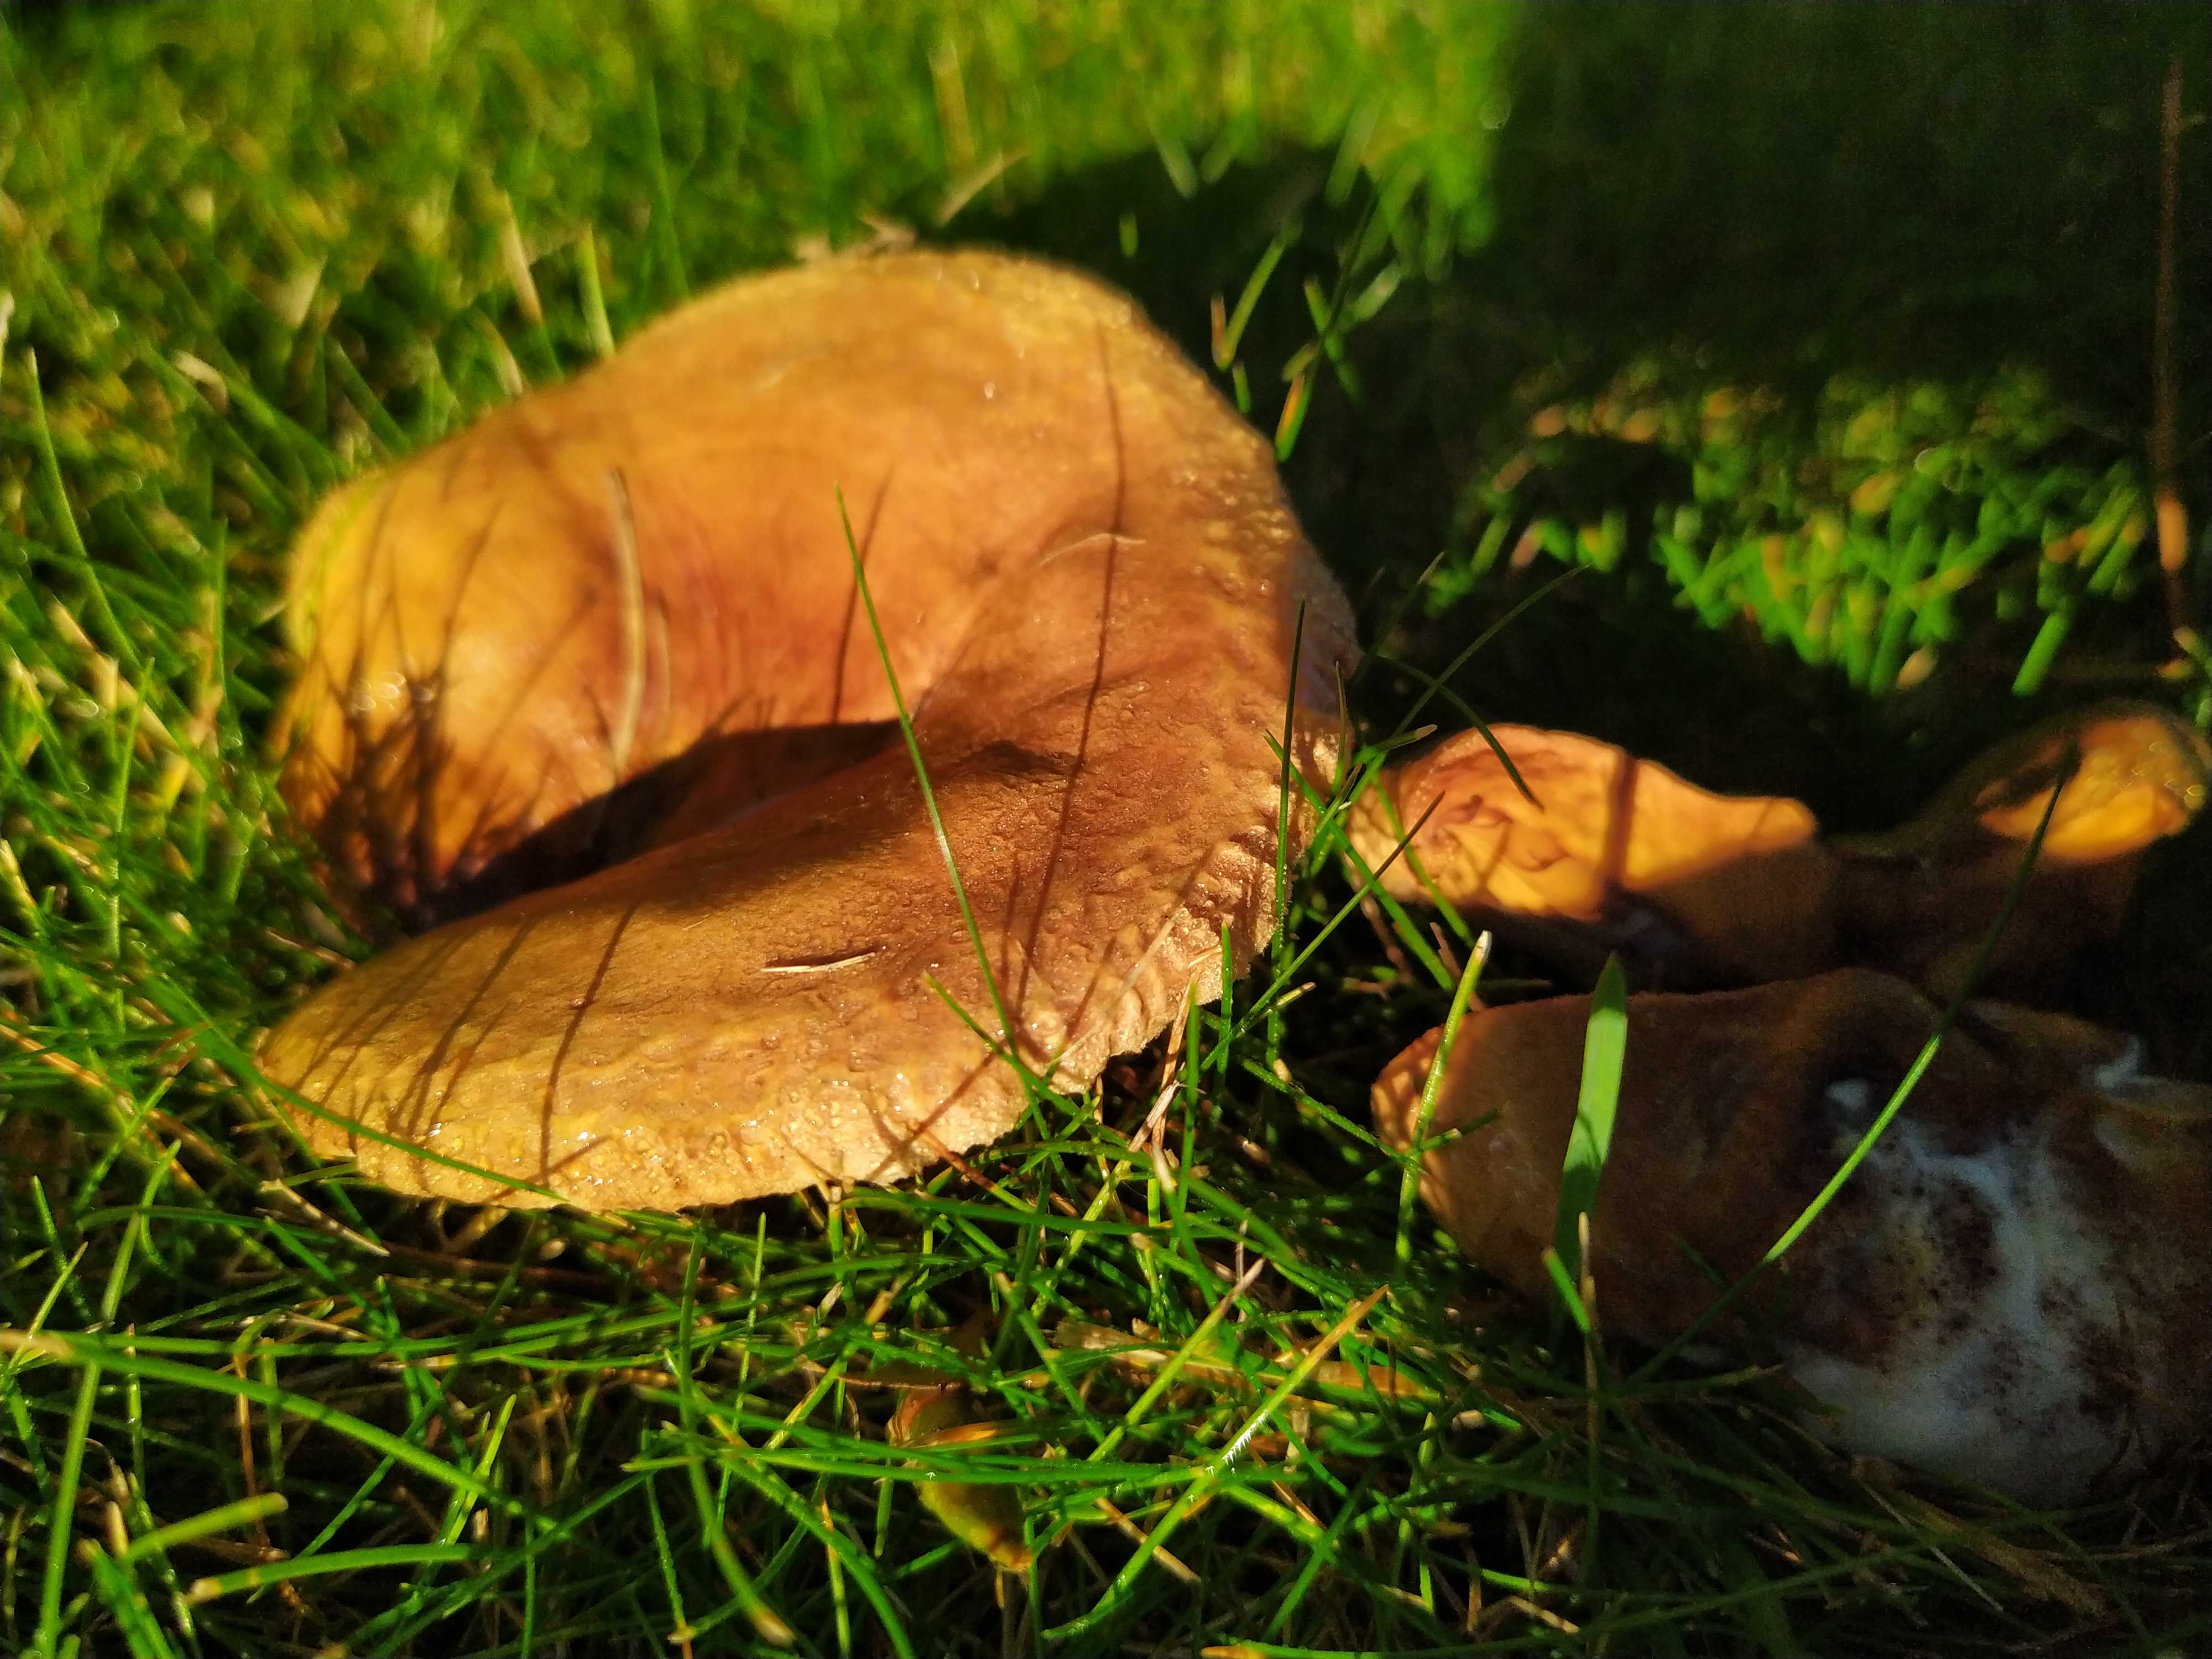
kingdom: Fungi
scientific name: Fungi
